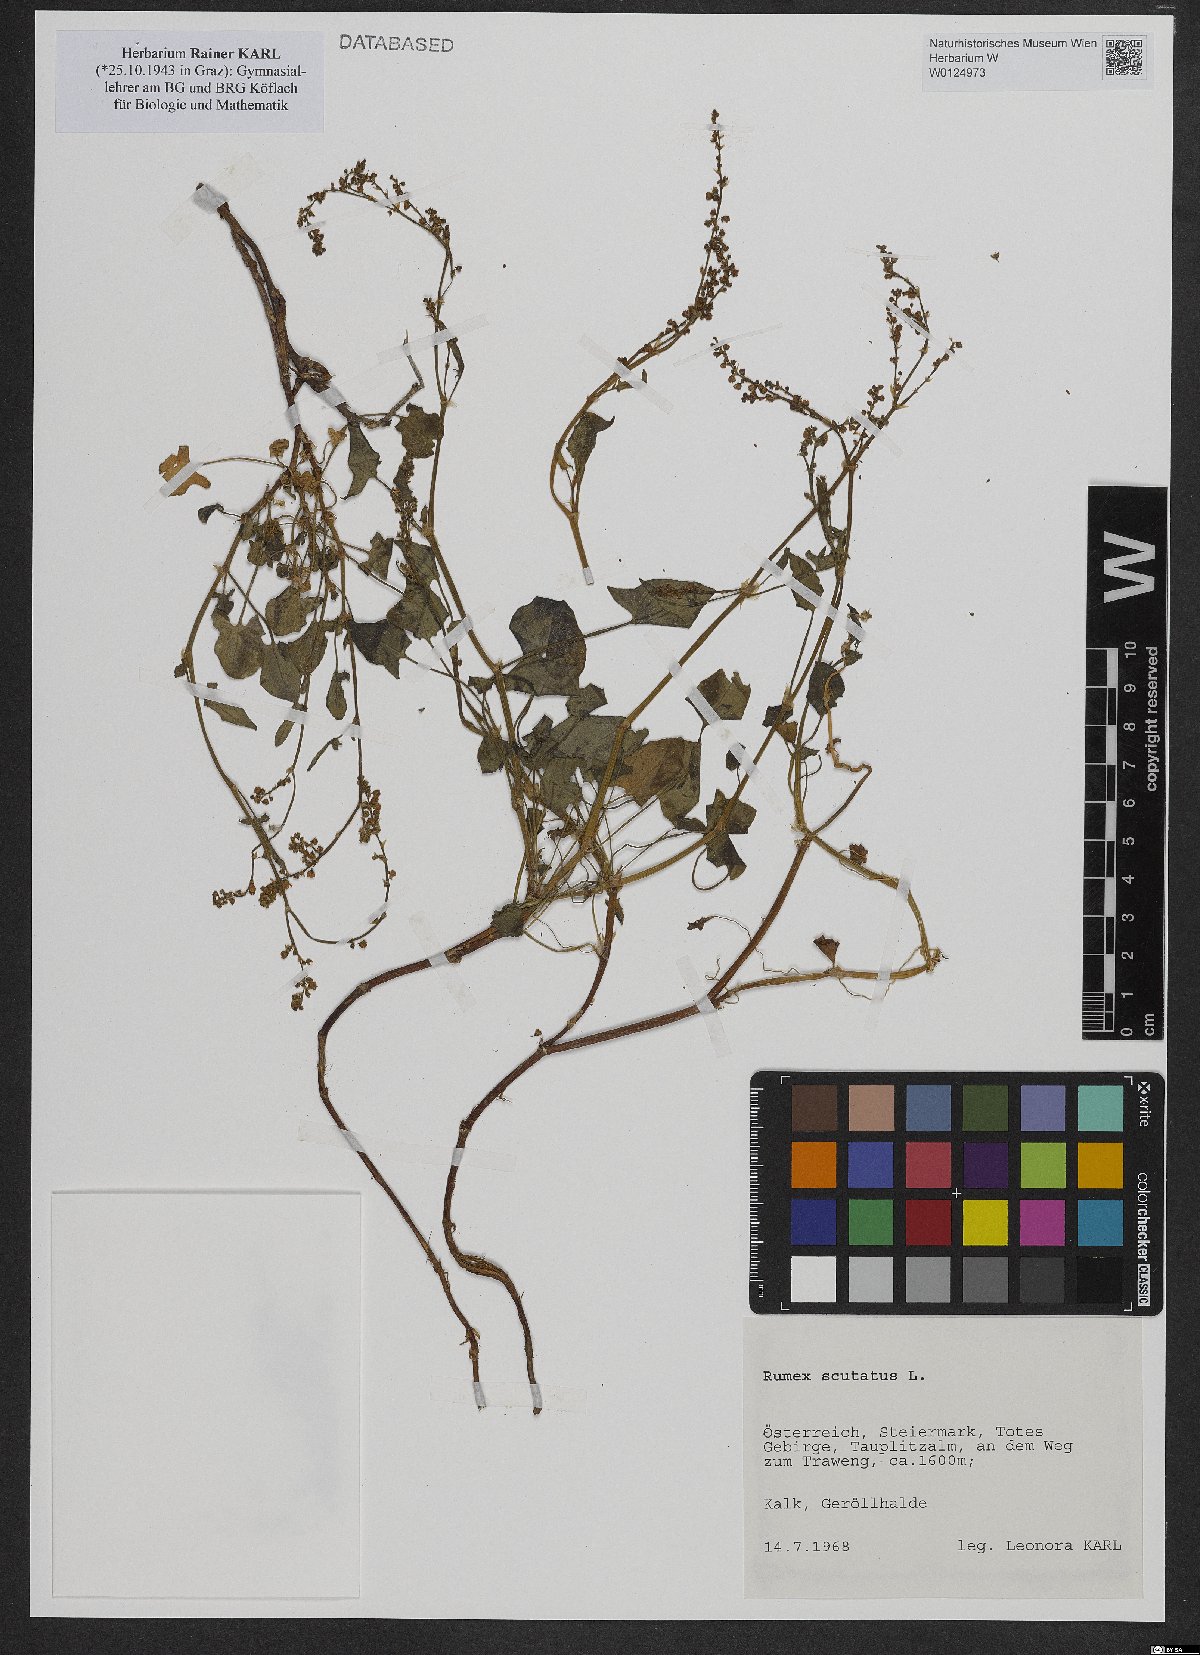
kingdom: Plantae
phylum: Tracheophyta
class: Magnoliopsida
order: Caryophyllales
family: Polygonaceae
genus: Rumex
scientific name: Rumex scutatus
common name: French sorrel
